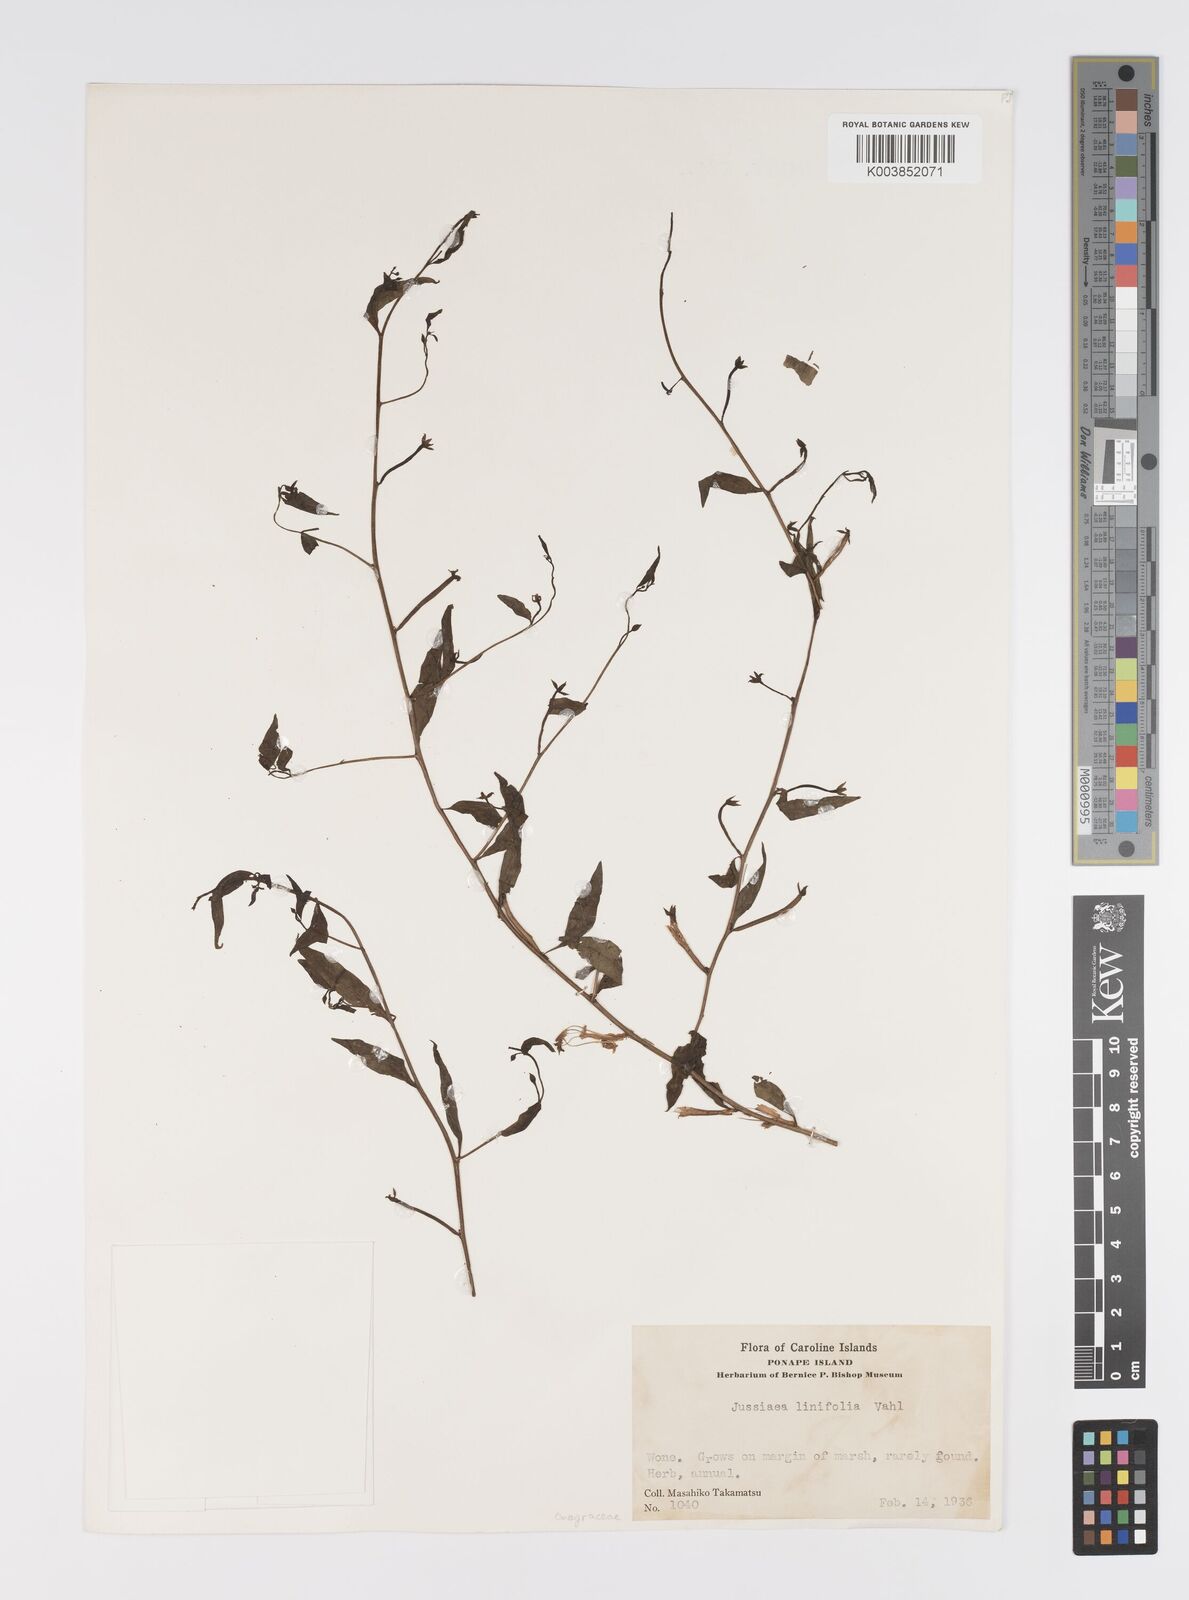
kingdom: Plantae
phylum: Tracheophyta
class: Magnoliopsida
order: Myrtales
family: Onagraceae
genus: Ludwigia
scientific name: Ludwigia hyssopifolia
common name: Linear leaf water primrose
